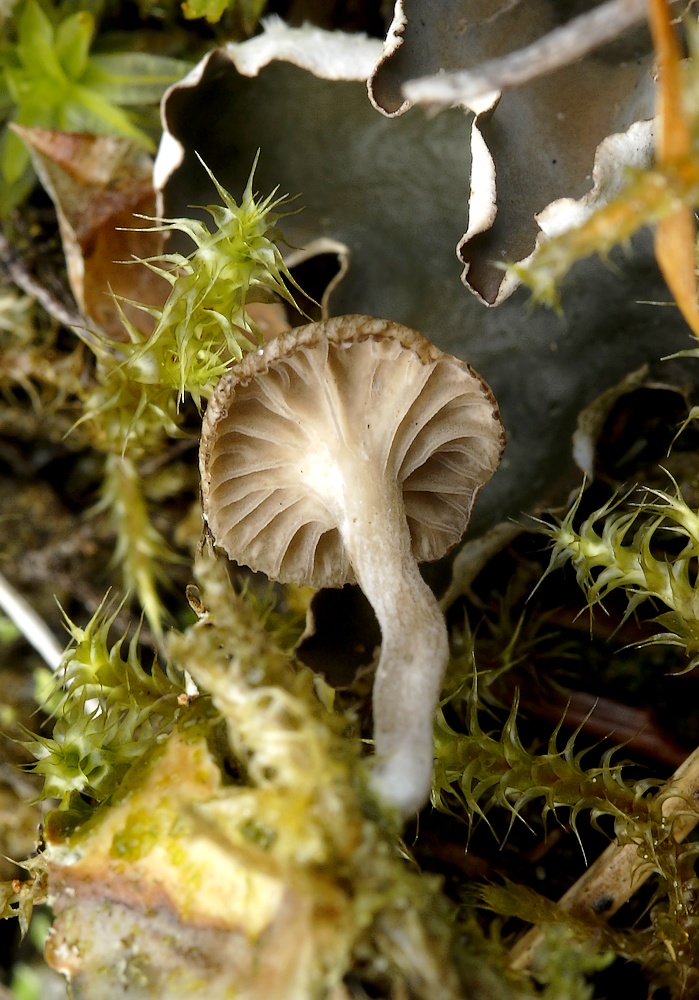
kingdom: Fungi
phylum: Basidiomycota
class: Agaricomycetes
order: Agaricales
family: Hygrophoraceae
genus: Arrhenia
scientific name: Arrhenia peltigerina
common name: skjoldlav-fontænehat
